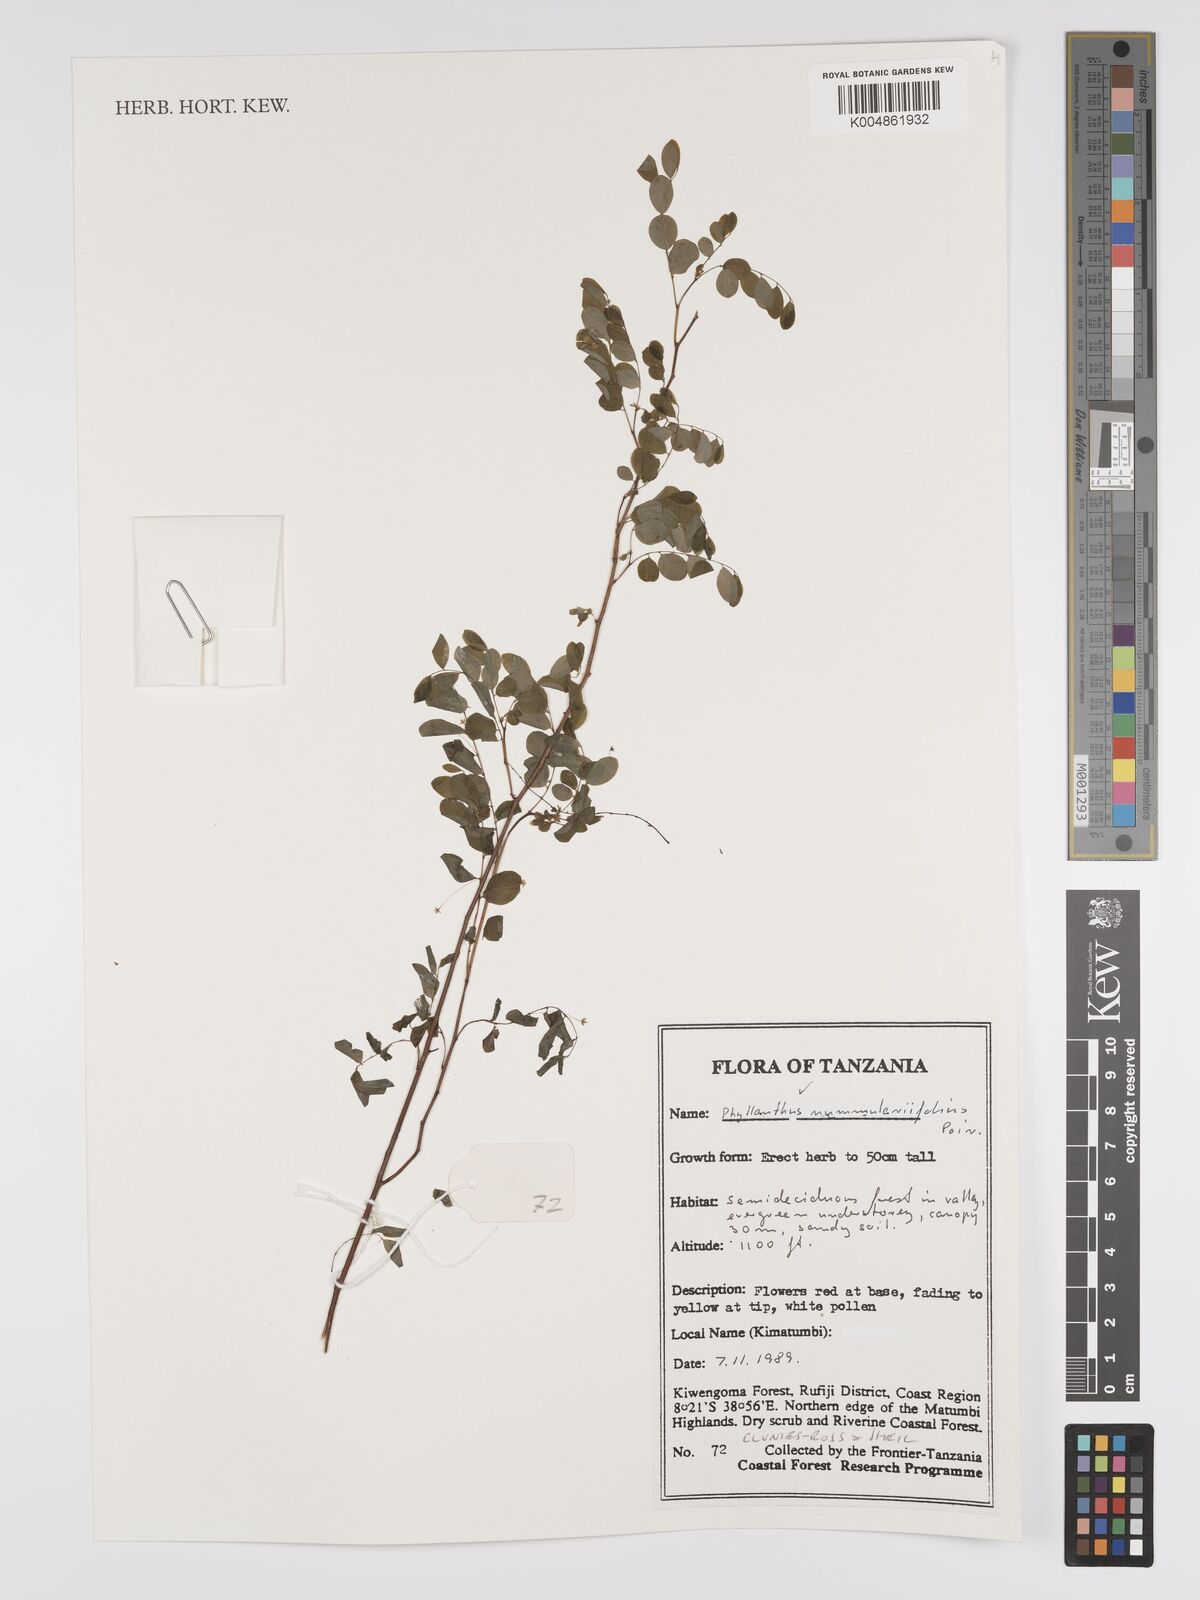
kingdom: Plantae
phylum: Tracheophyta
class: Magnoliopsida
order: Malpighiales
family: Phyllanthaceae
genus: Phyllanthus
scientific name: Phyllanthus nummulariifolius
